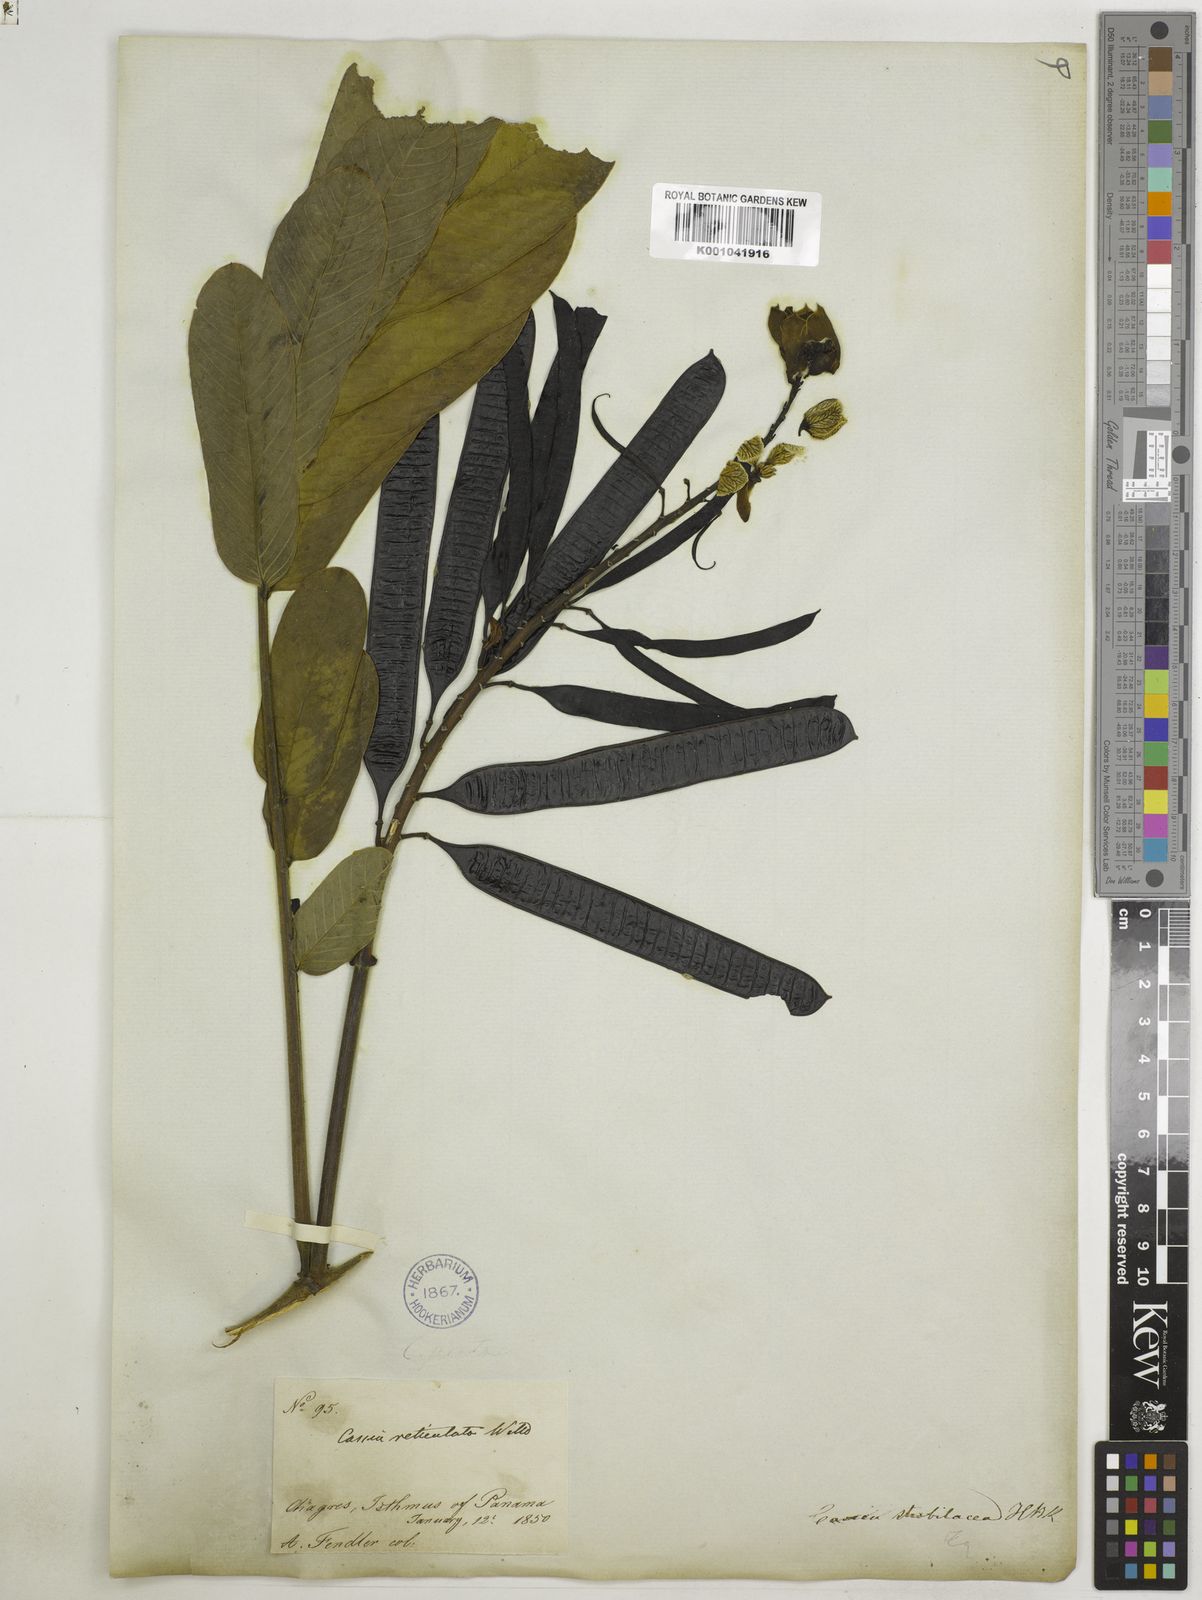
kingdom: Plantae
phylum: Tracheophyta
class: Magnoliopsida
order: Fabales
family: Fabaceae
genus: Senna
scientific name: Senna reticulata
